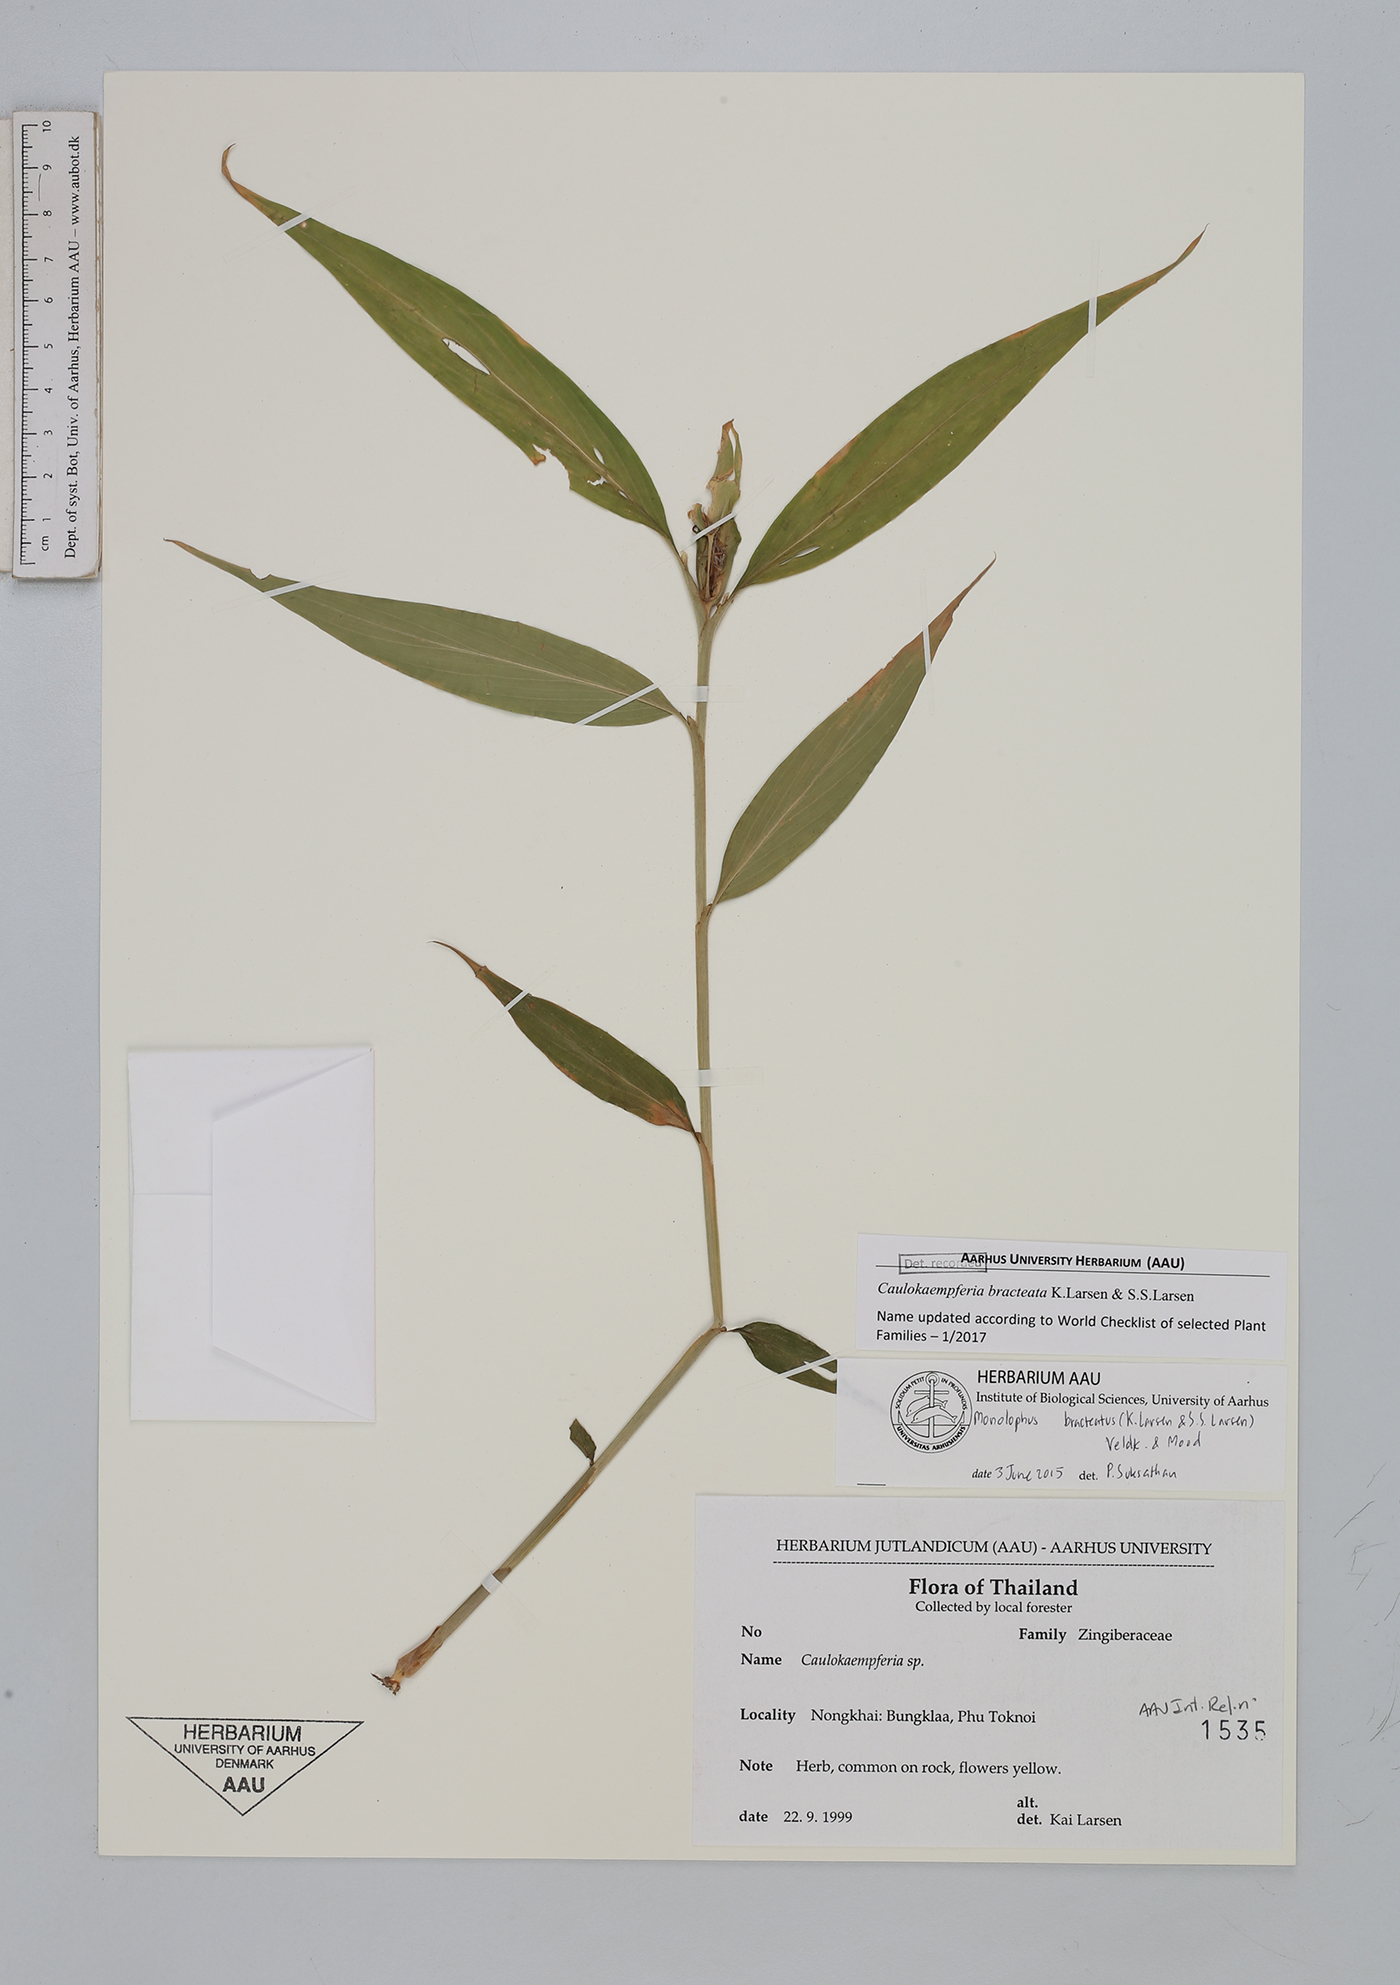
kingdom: Plantae
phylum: Tracheophyta
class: Liliopsida
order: Zingiberales
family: Zingiberaceae
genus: Caulokaempferia
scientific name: Caulokaempferia bracteata
